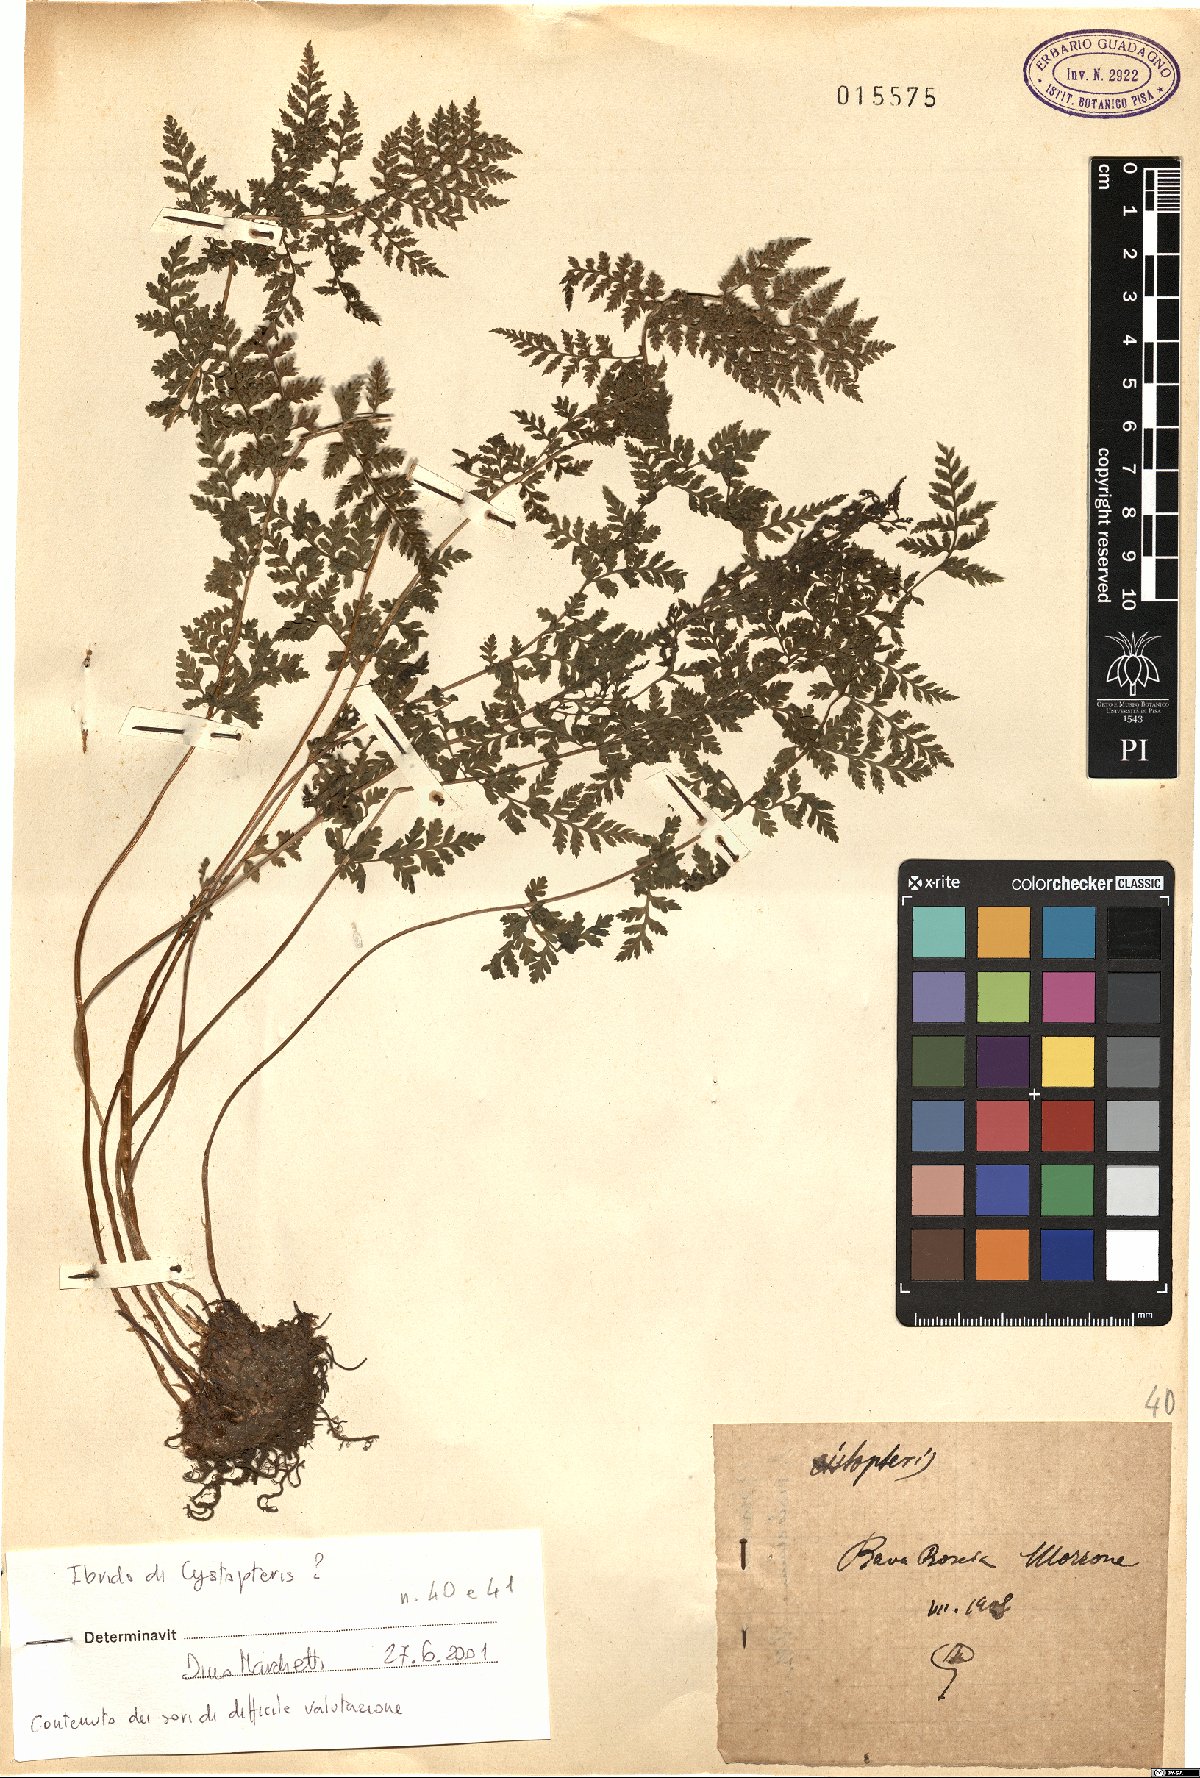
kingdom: Plantae
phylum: Tracheophyta
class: Polypodiopsida
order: Polypodiales
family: Cystopteridaceae
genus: Cystopteris
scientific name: Cystopteris
